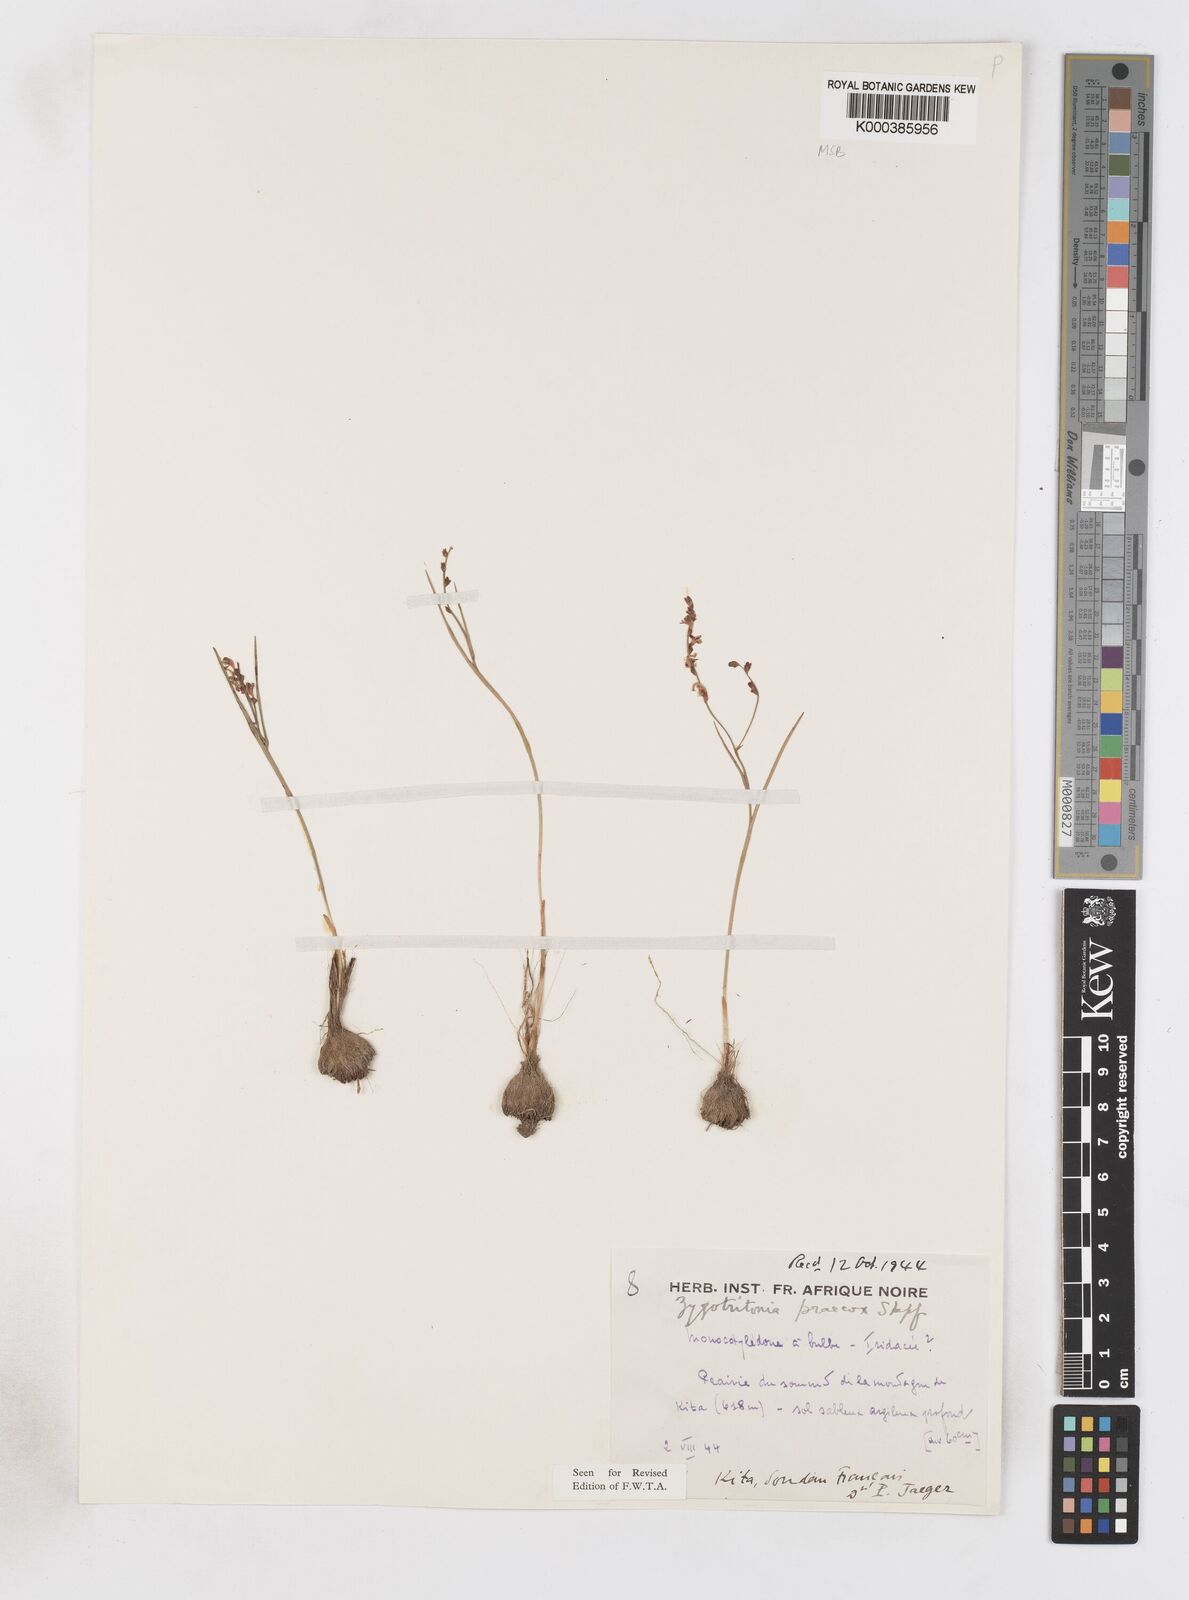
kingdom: Plantae
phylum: Tracheophyta
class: Liliopsida
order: Asparagales
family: Iridaceae
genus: Zygotritonia
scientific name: Zygotritonia praecox
